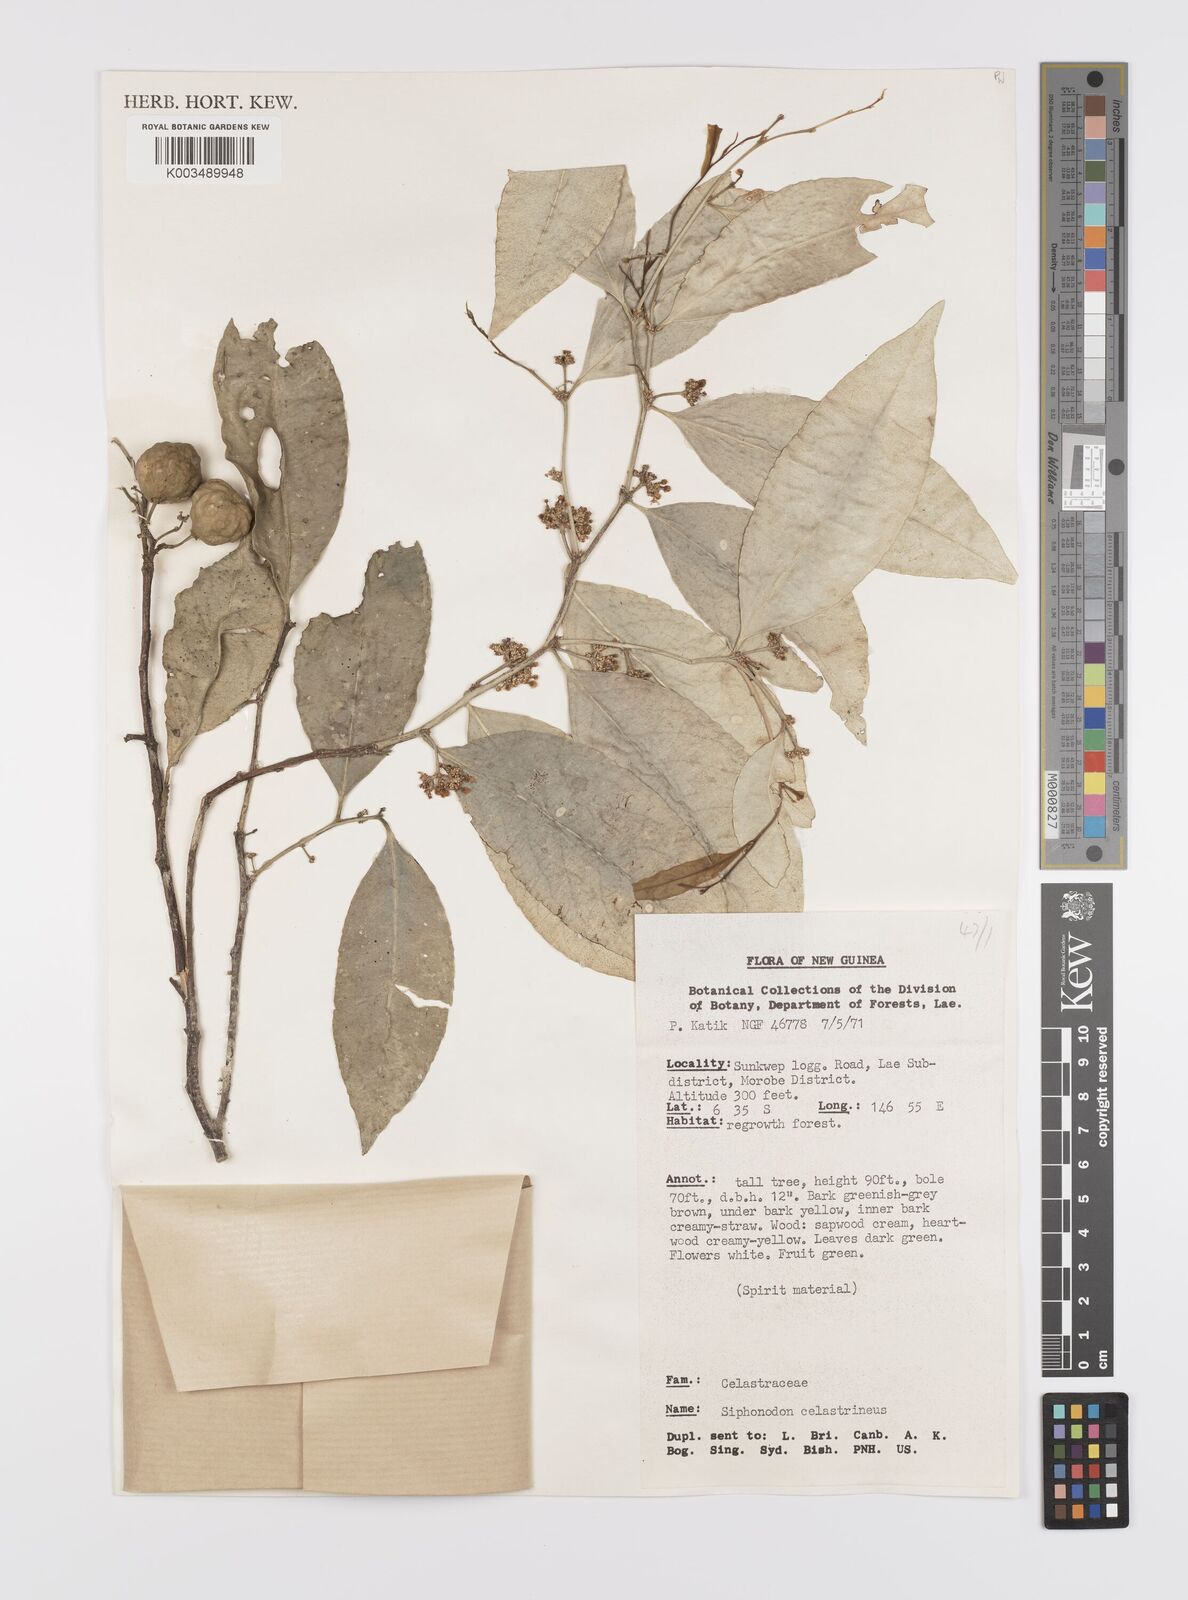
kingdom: Plantae
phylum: Tracheophyta
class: Magnoliopsida
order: Celastrales
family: Celastraceae
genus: Siphonodon
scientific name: Siphonodon celastrineus
